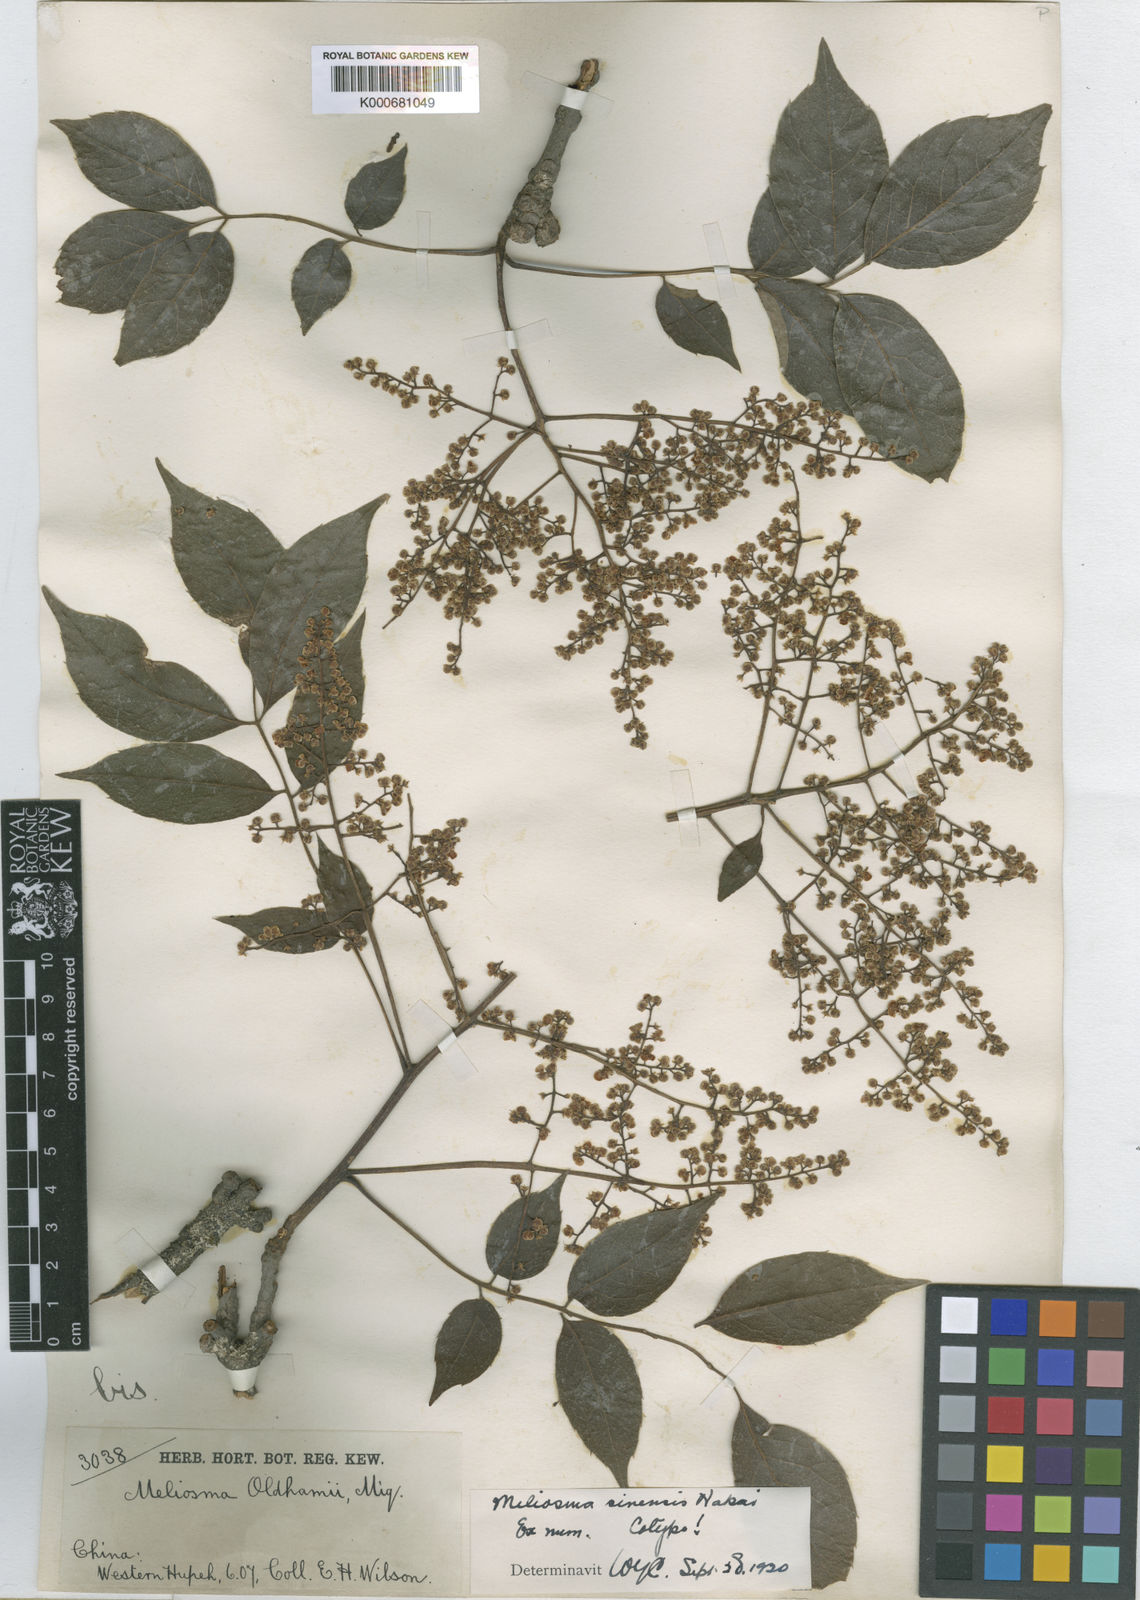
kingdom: Plantae
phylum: Tracheophyta
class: Magnoliopsida
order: Proteales
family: Sabiaceae
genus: Meliosma
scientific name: Meliosma oldhamii
